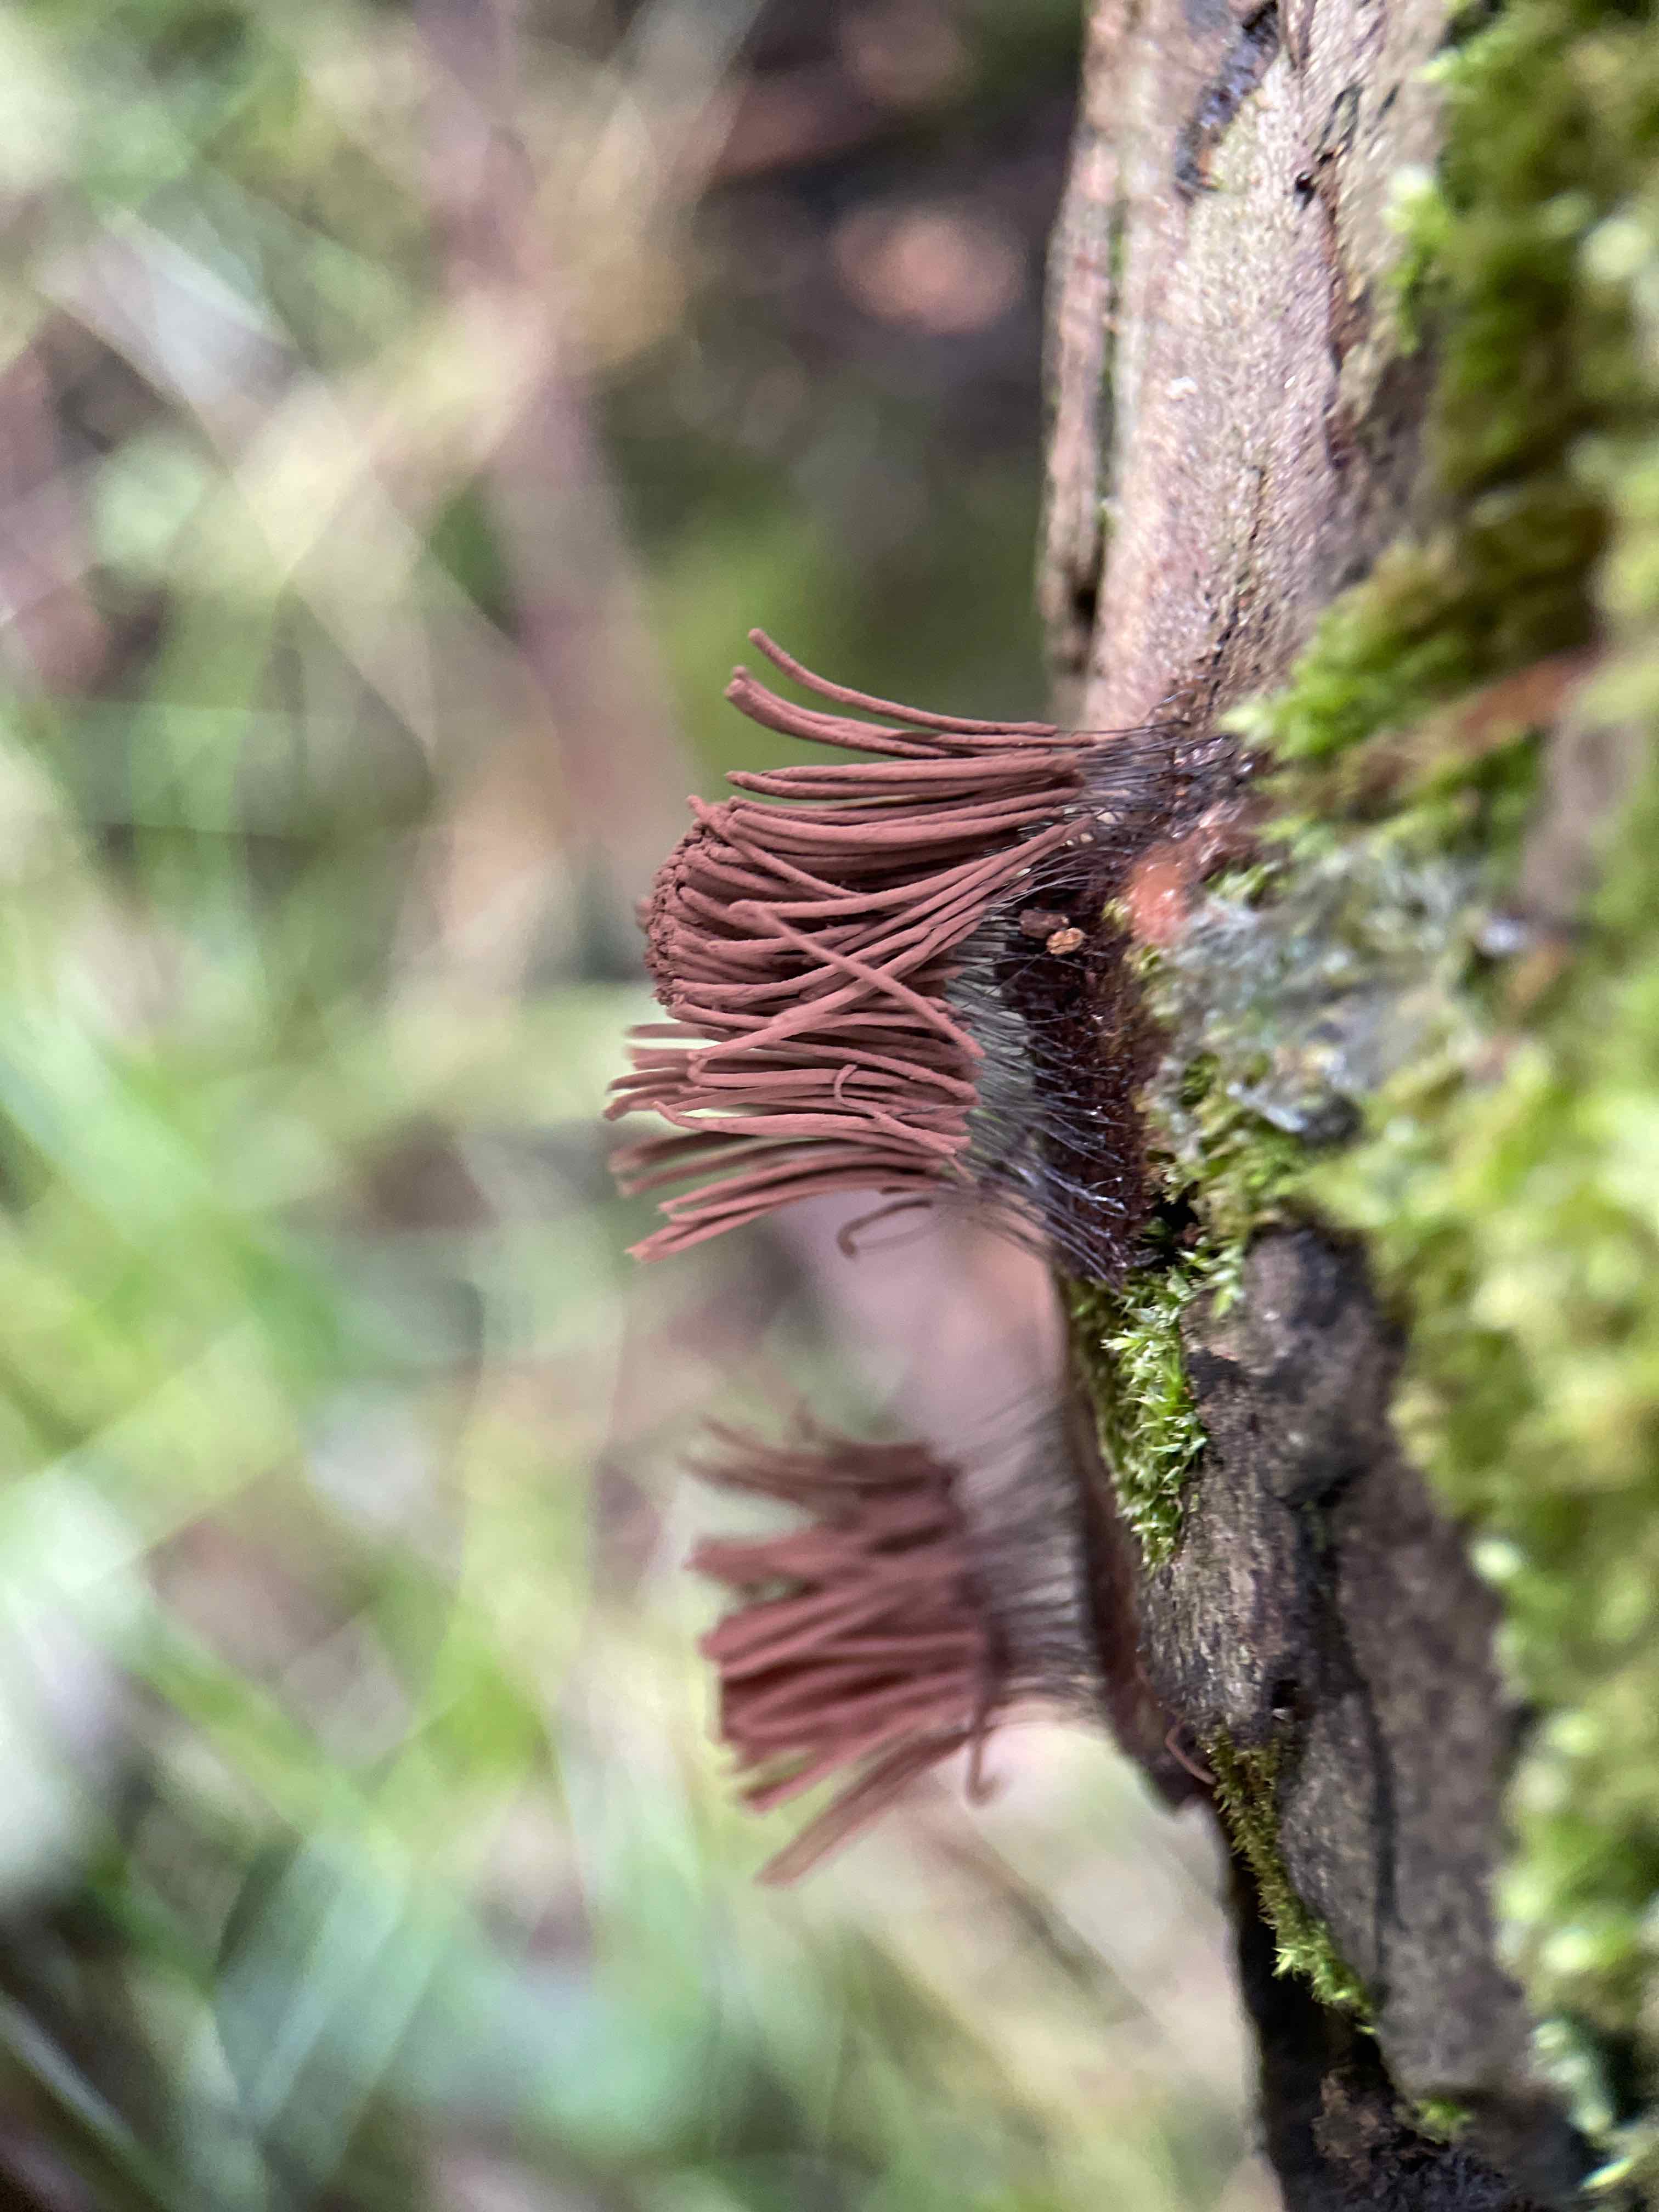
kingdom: Protozoa
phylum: Mycetozoa
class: Myxomycetes
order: Stemonitidales
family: Stemonitidaceae
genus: Stemonitis
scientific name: Stemonitis
